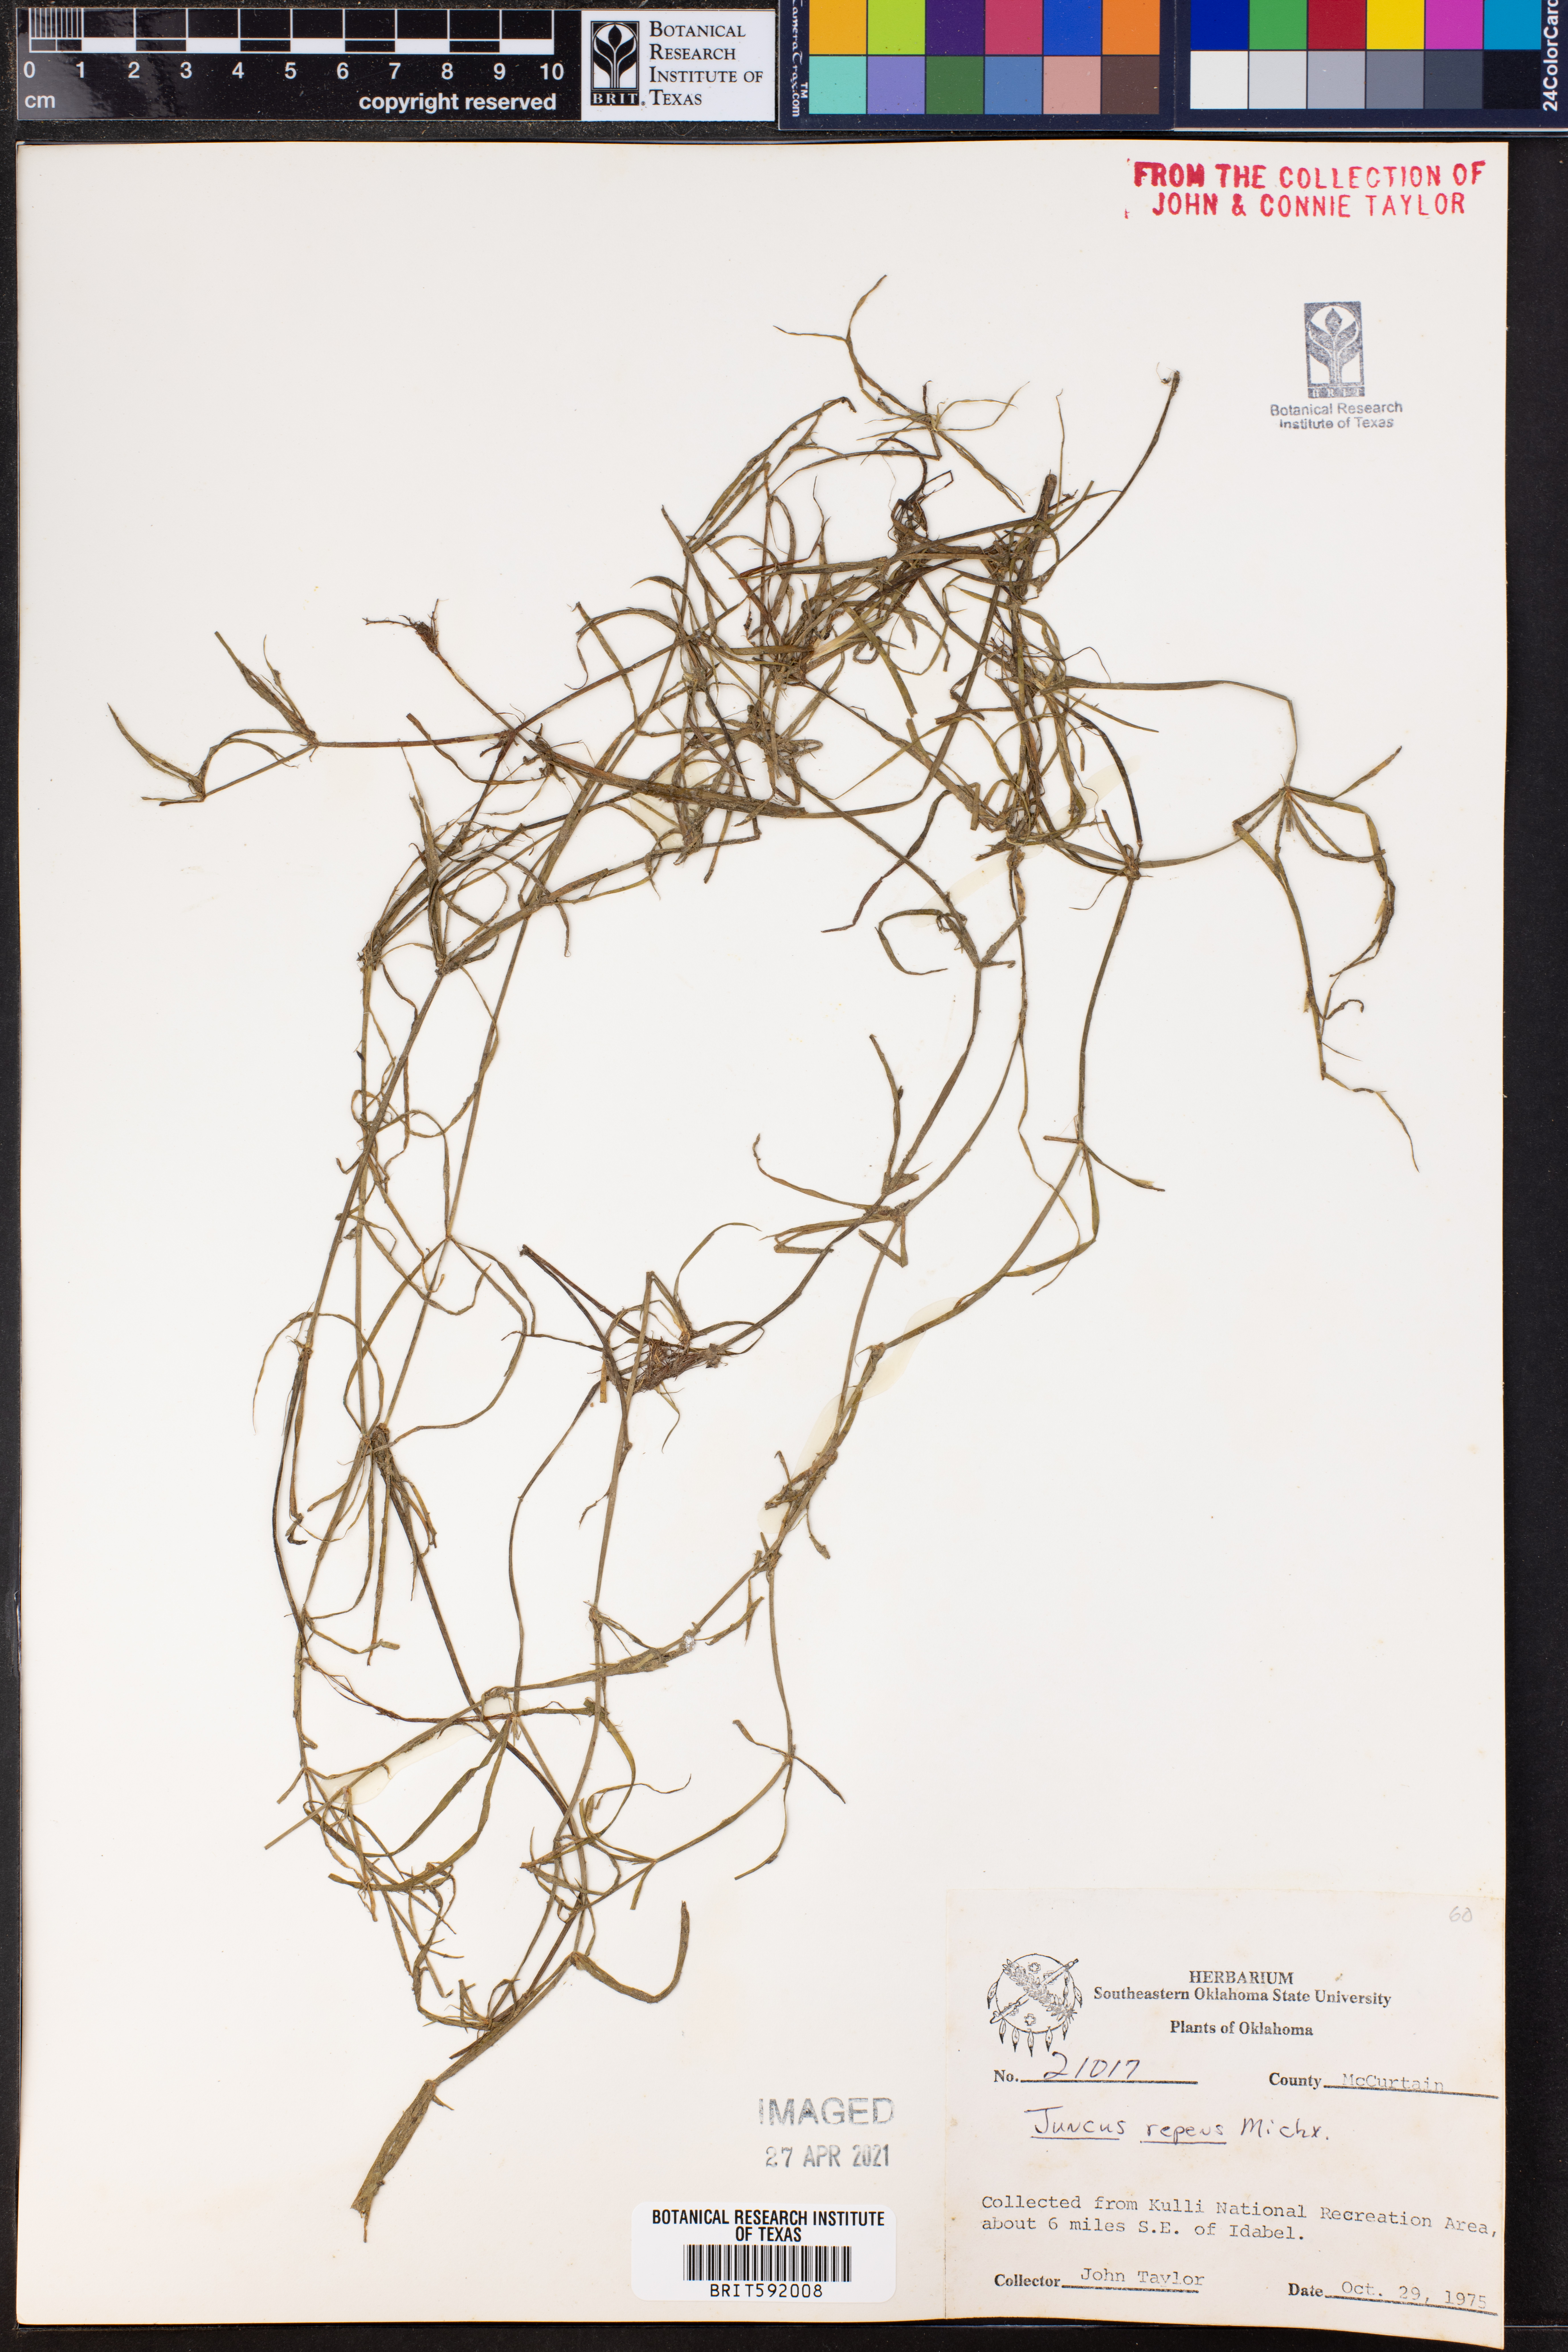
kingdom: Plantae
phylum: Tracheophyta
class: Liliopsida
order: Poales
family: Juncaceae
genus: Juncus
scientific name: Juncus repens
